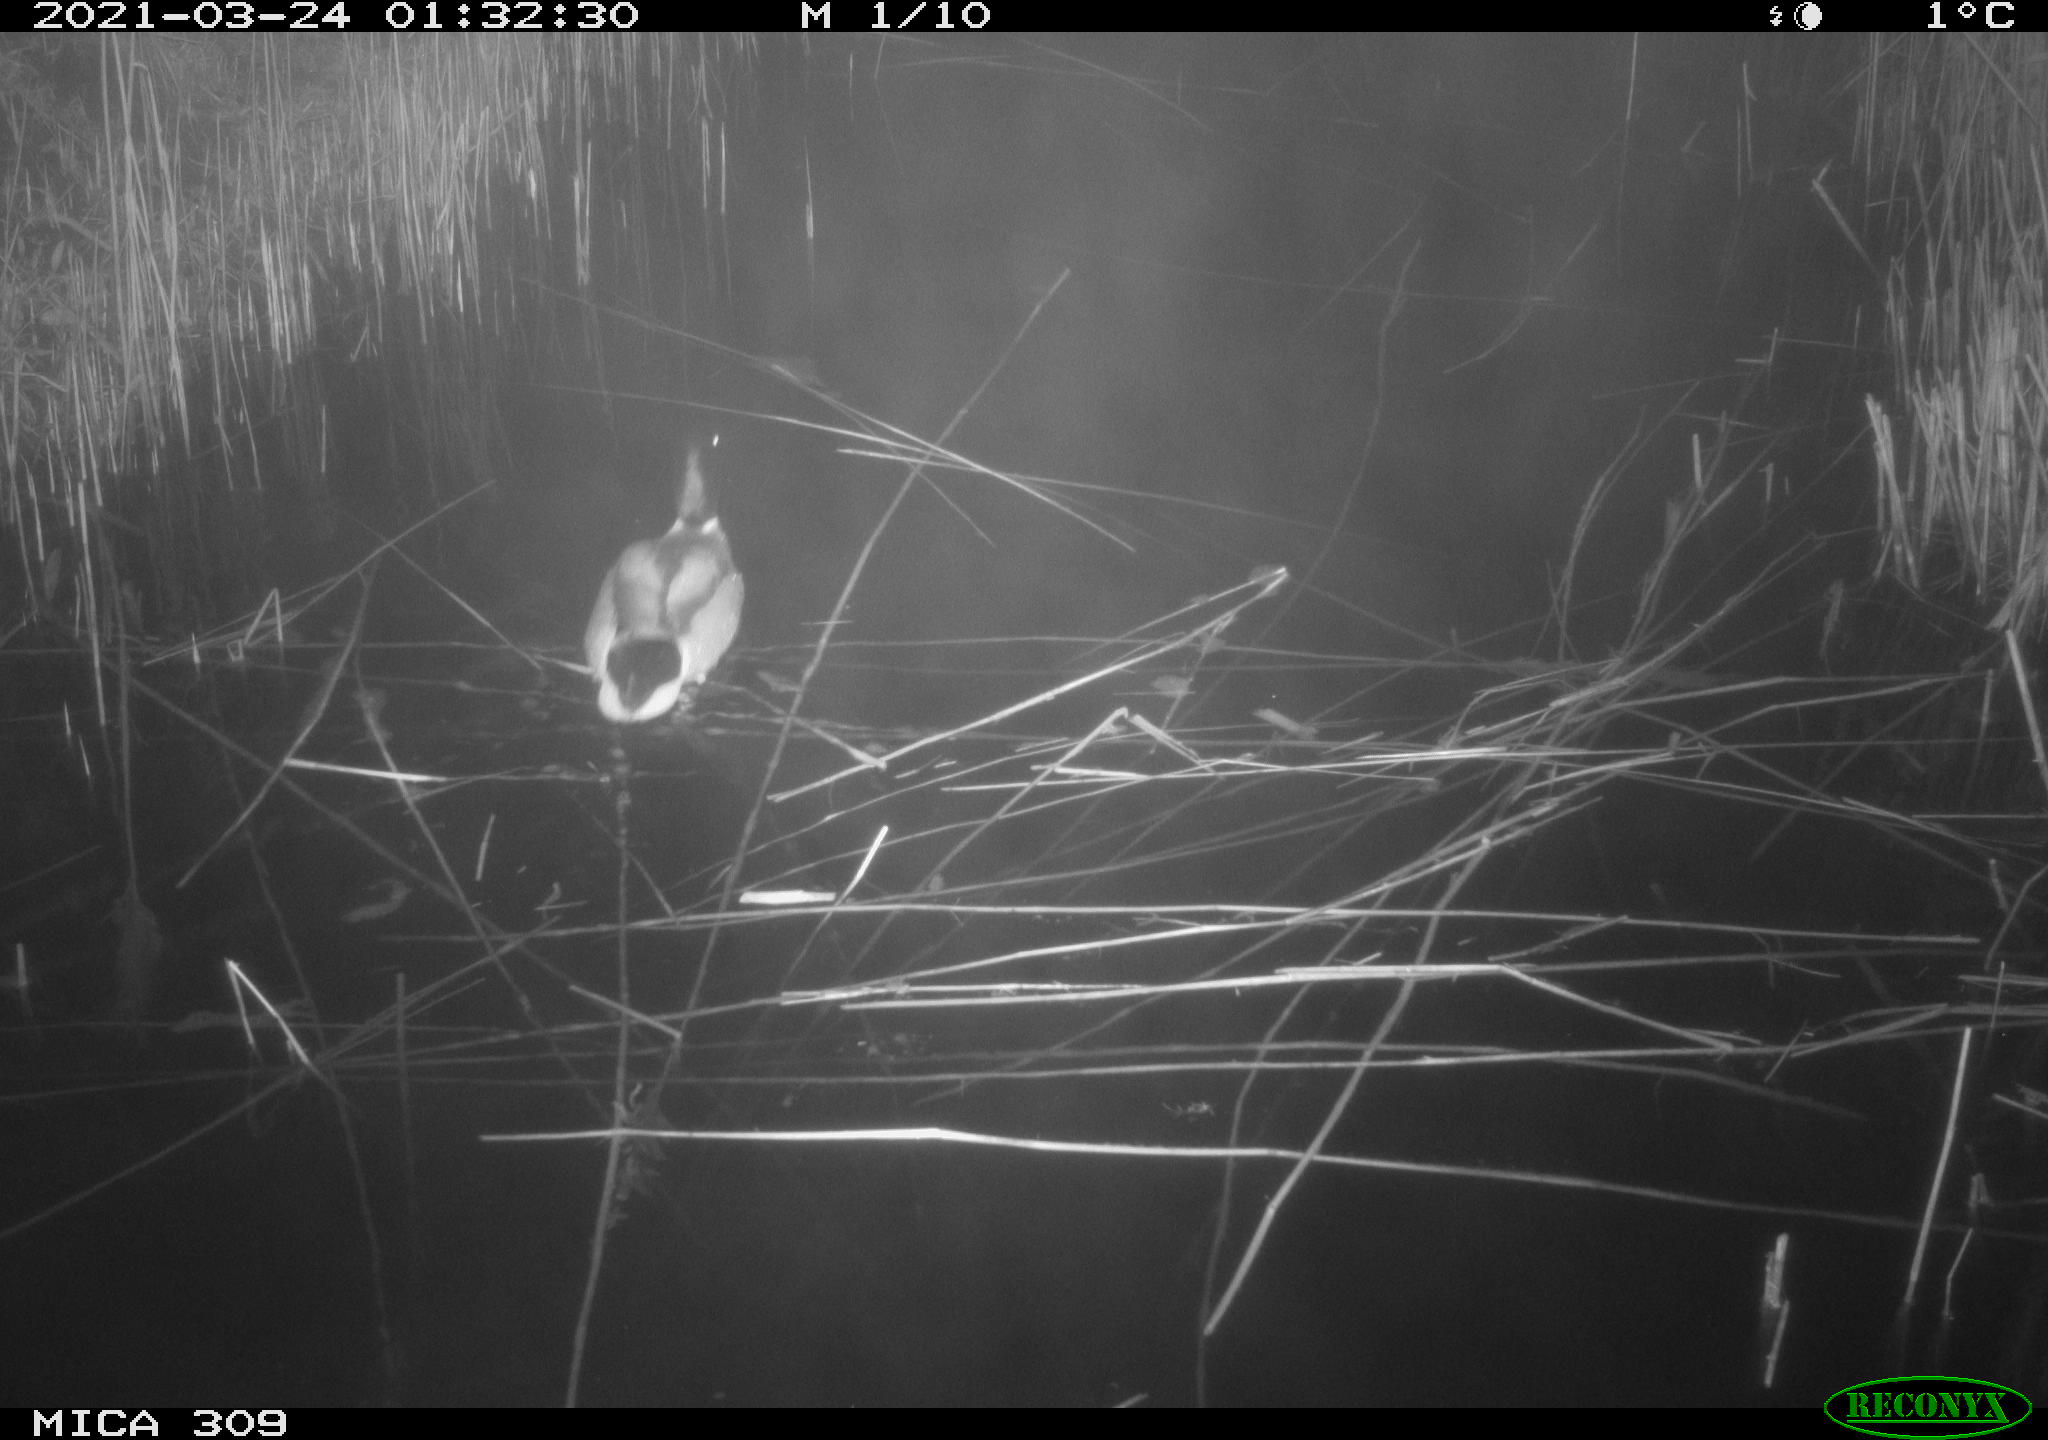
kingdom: Animalia
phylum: Chordata
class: Aves
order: Anseriformes
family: Anatidae
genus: Anas
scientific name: Anas platyrhynchos
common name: Mallard
